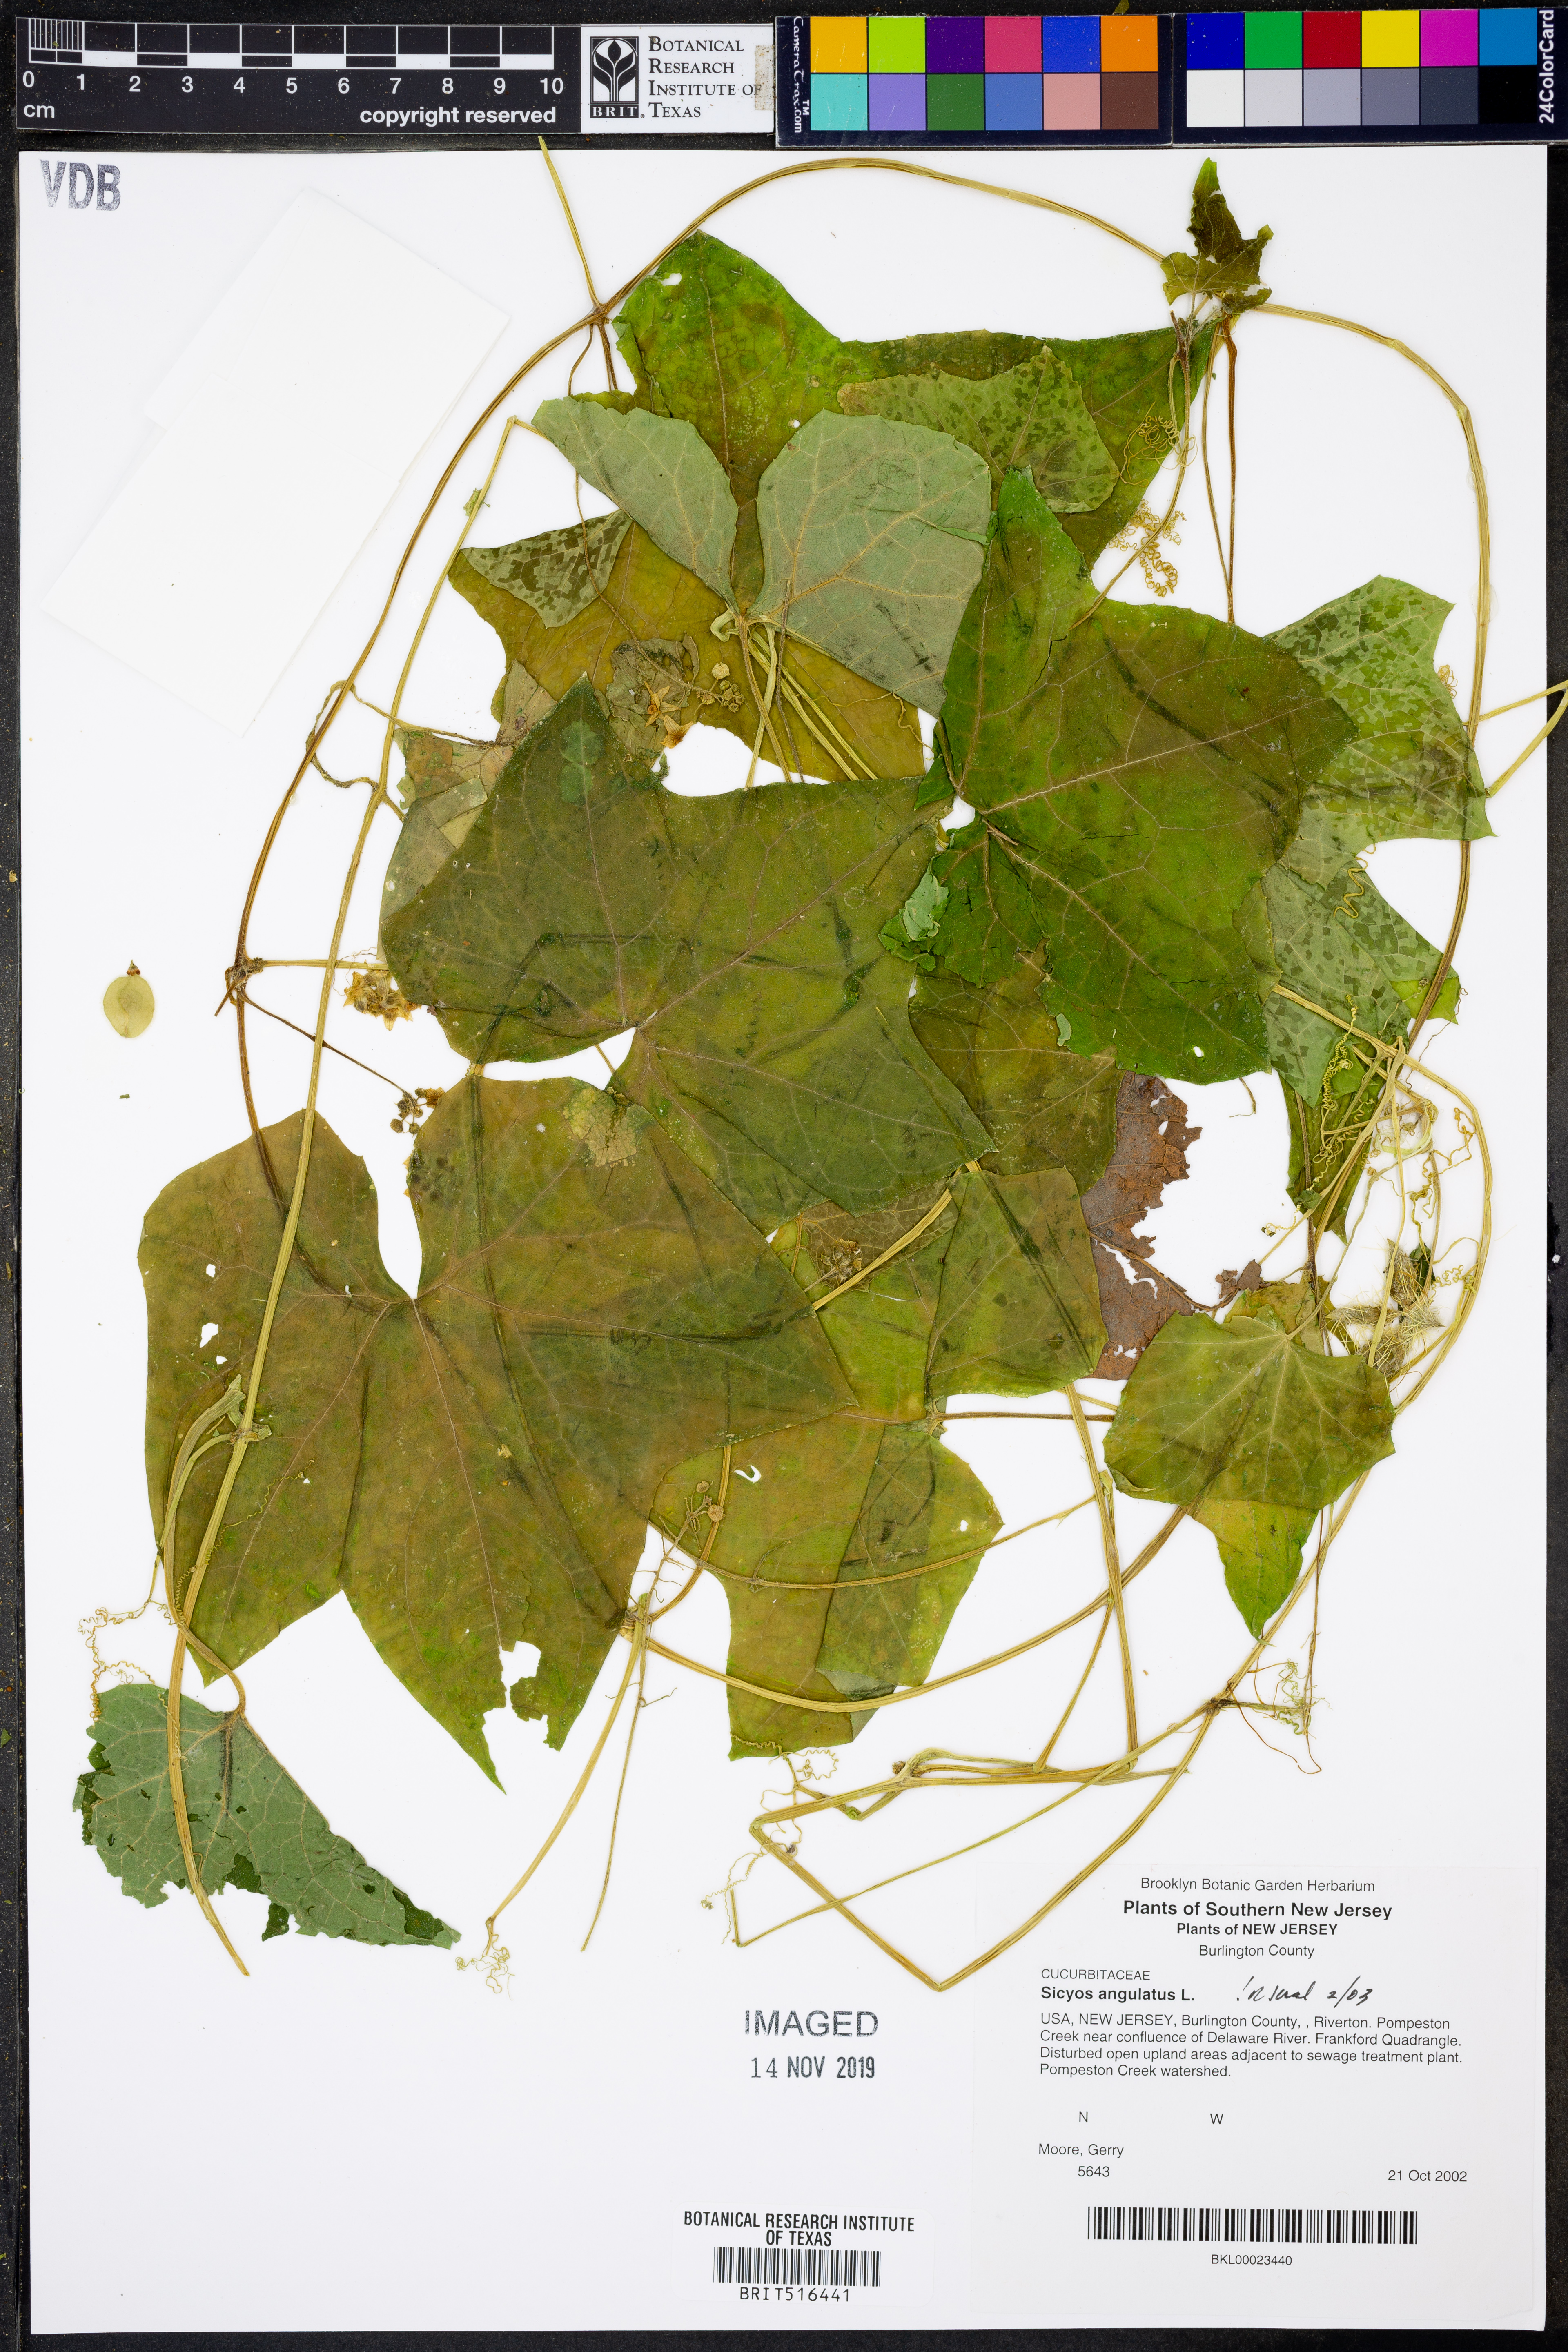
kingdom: Plantae
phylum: Tracheophyta
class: Magnoliopsida
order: Cucurbitales
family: Cucurbitaceae
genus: Sicyos
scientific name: Sicyos angulatus
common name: Angled burr cucumber
